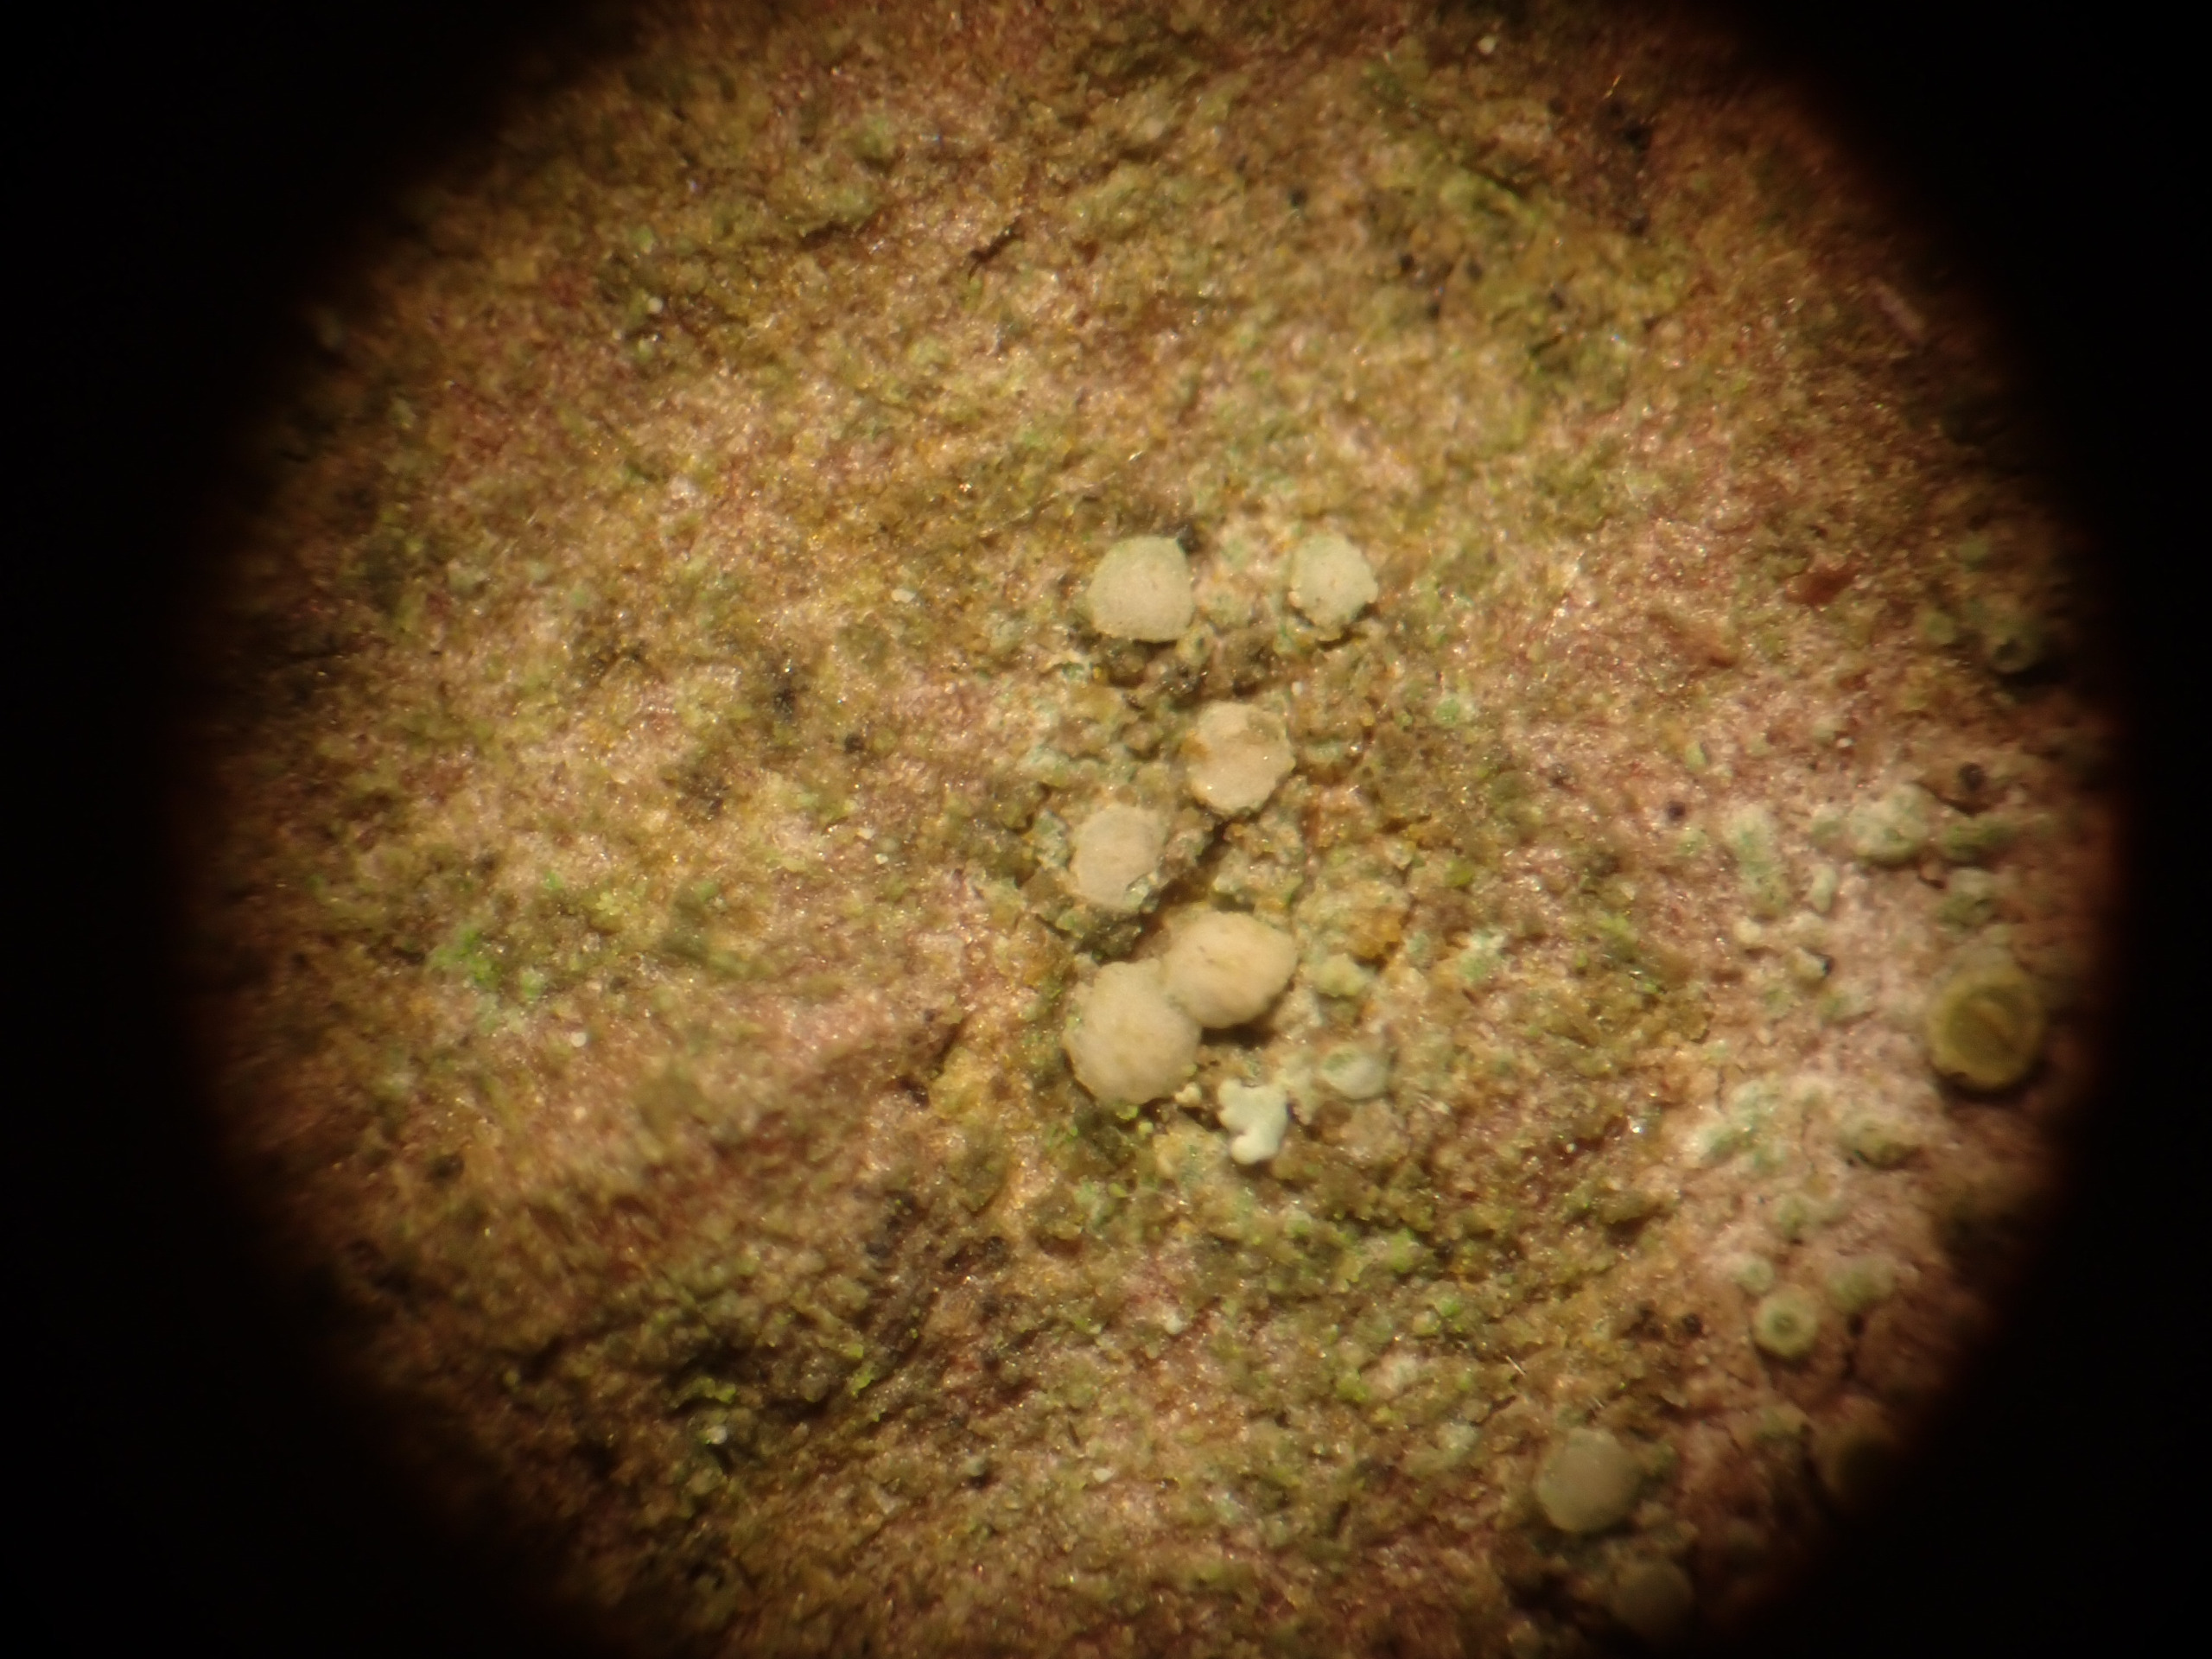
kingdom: Fungi
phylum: Ascomycota
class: Lecanoromycetes
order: Lecanorales
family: Ramalinaceae
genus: Lecania
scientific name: Lecania cyrtella
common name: Hylde-lecania
